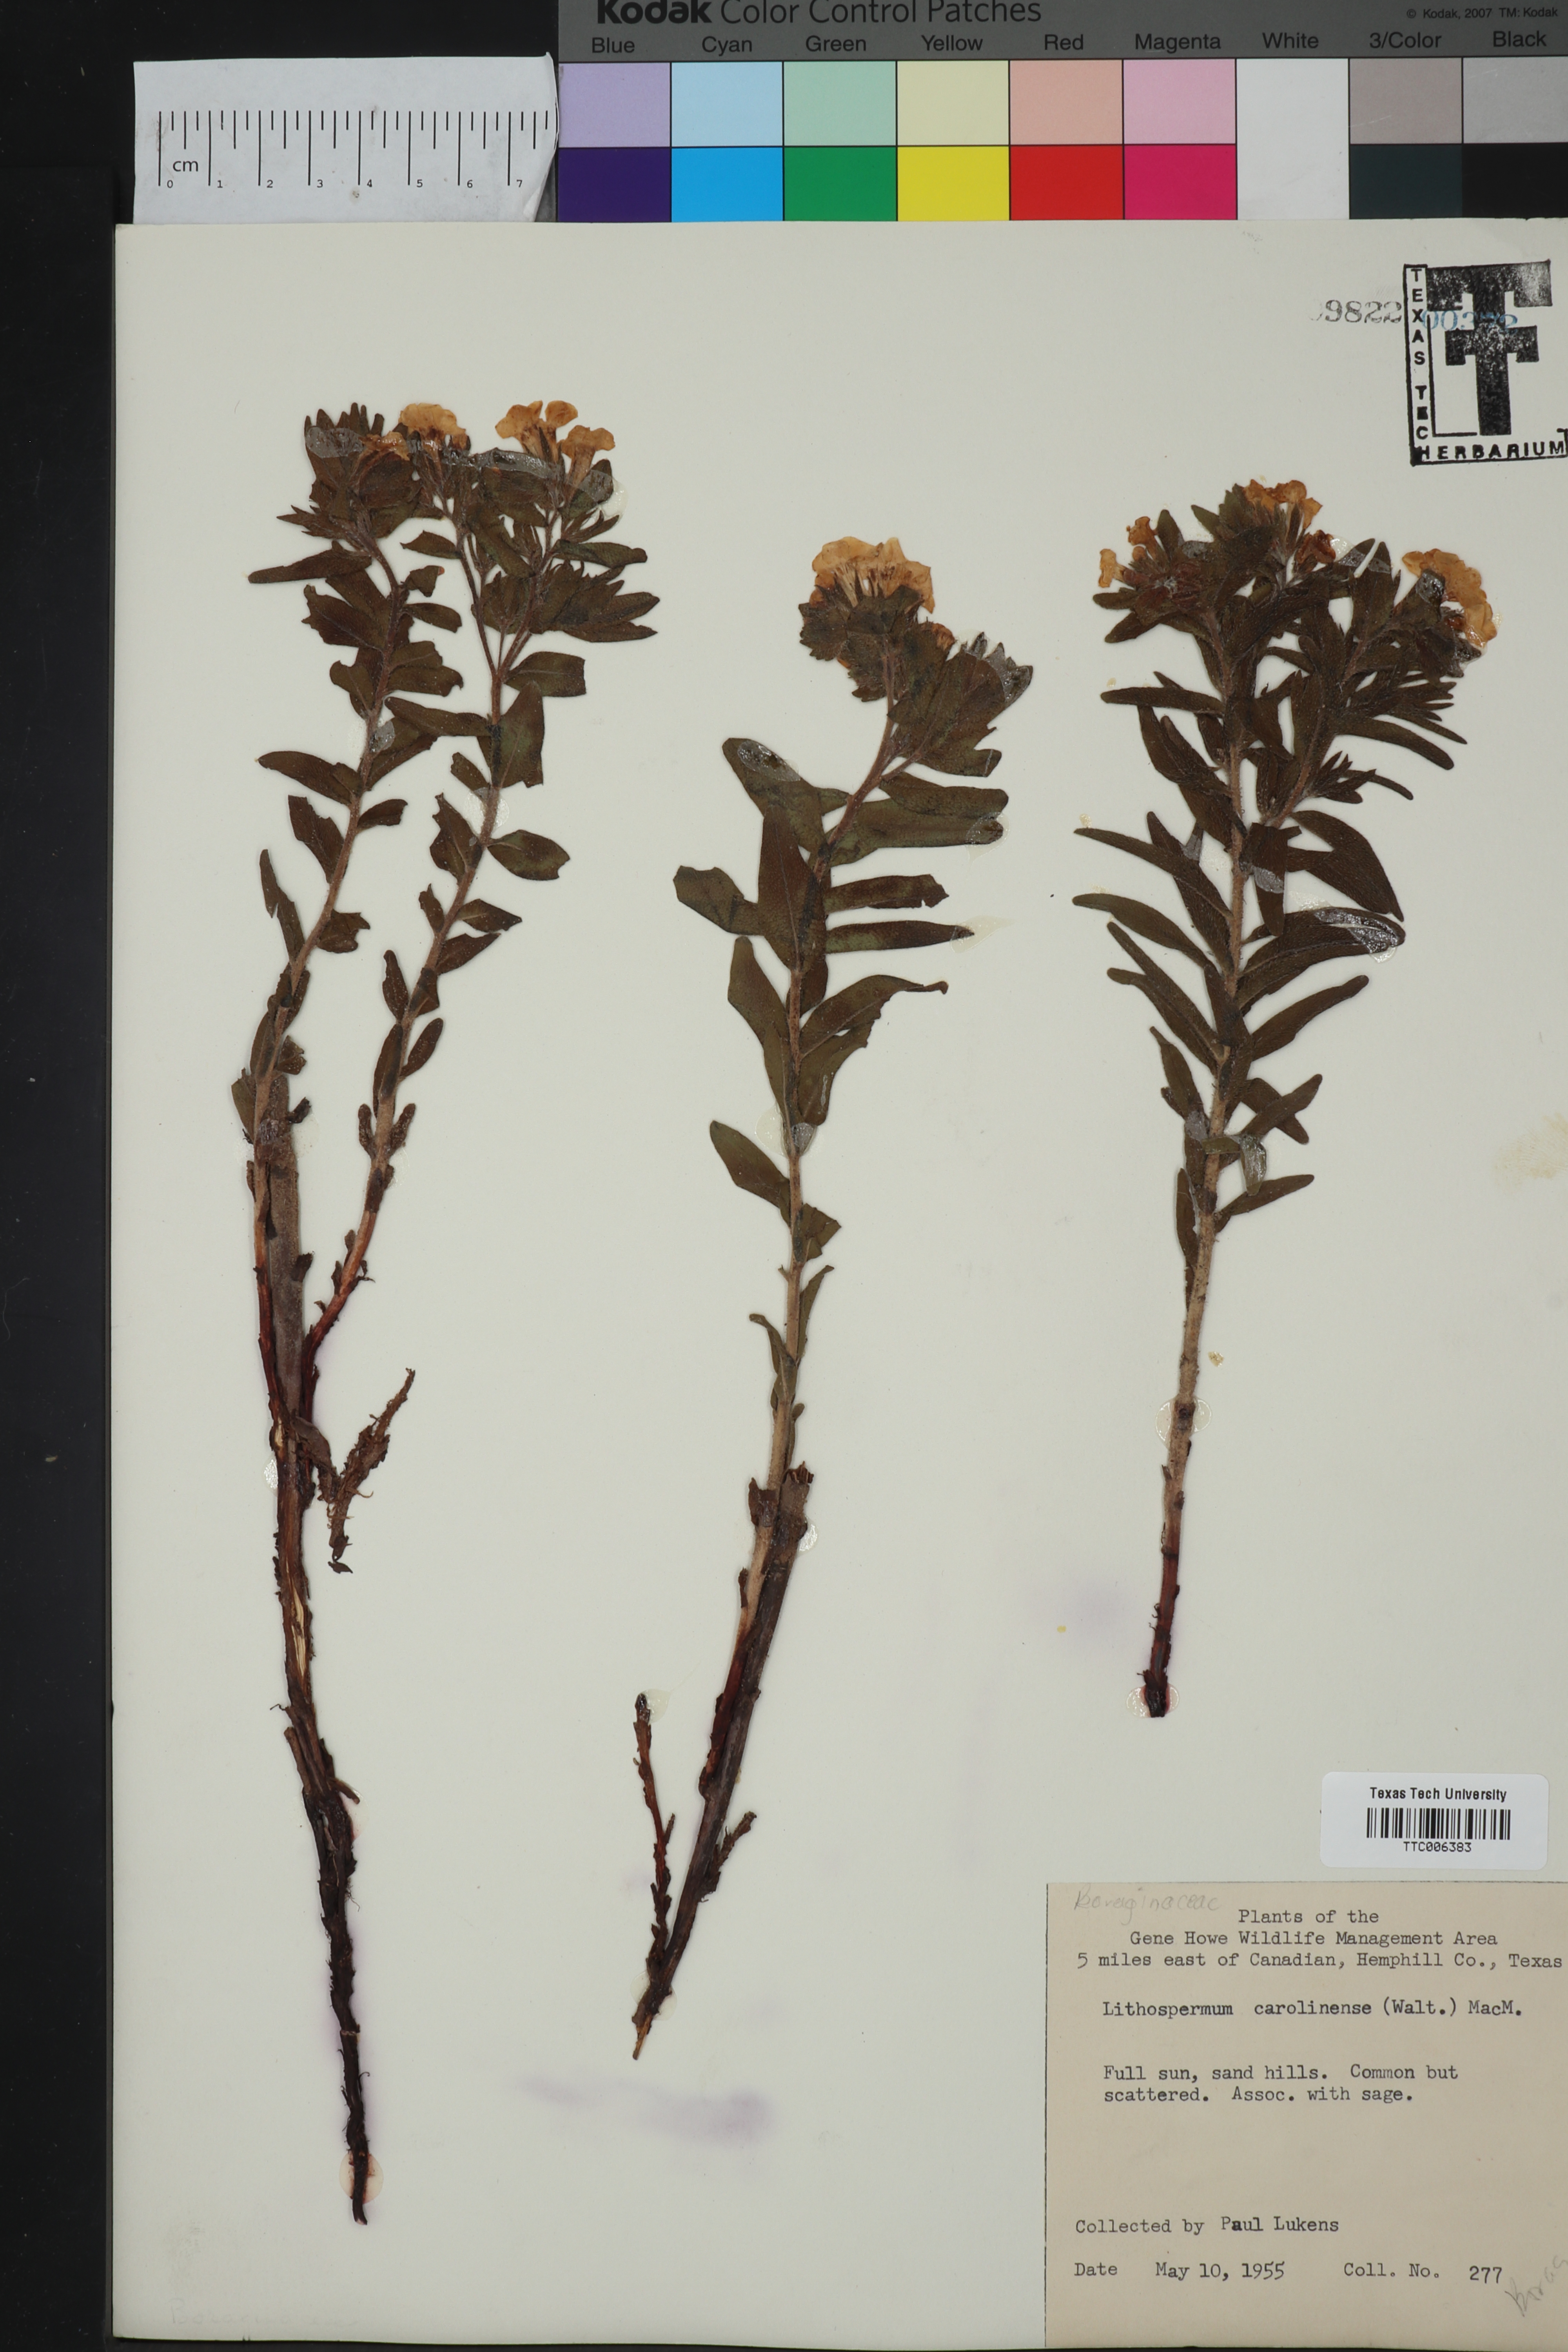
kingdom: Plantae
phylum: Tracheophyta
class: Magnoliopsida
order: Boraginales
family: Boraginaceae
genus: Lithospermum
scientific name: Lithospermum carolinense
